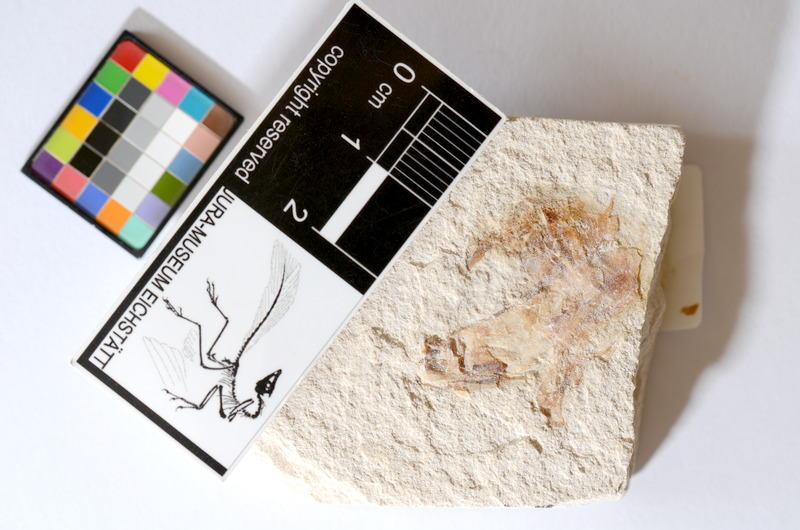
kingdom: Animalia
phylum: Chordata
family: Ascalaboidae
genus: Tharsis
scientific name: Tharsis dubius
